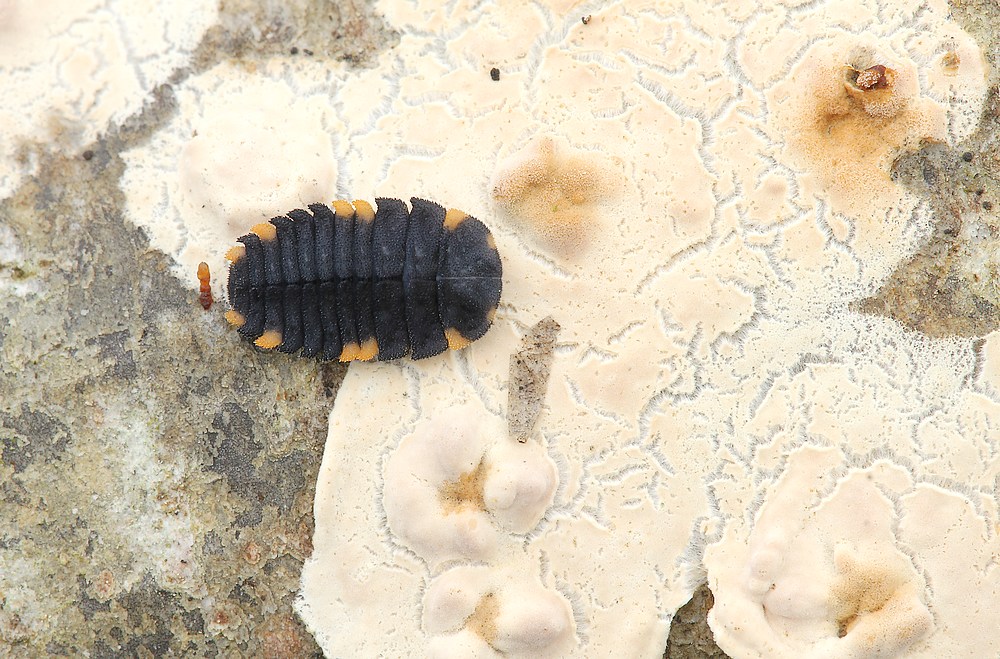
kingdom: Fungi
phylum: Basidiomycota
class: Agaricomycetes
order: Agaricales
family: Physalacriaceae
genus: Cylindrobasidium
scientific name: Cylindrobasidium evolvens
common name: sprækkehinde
